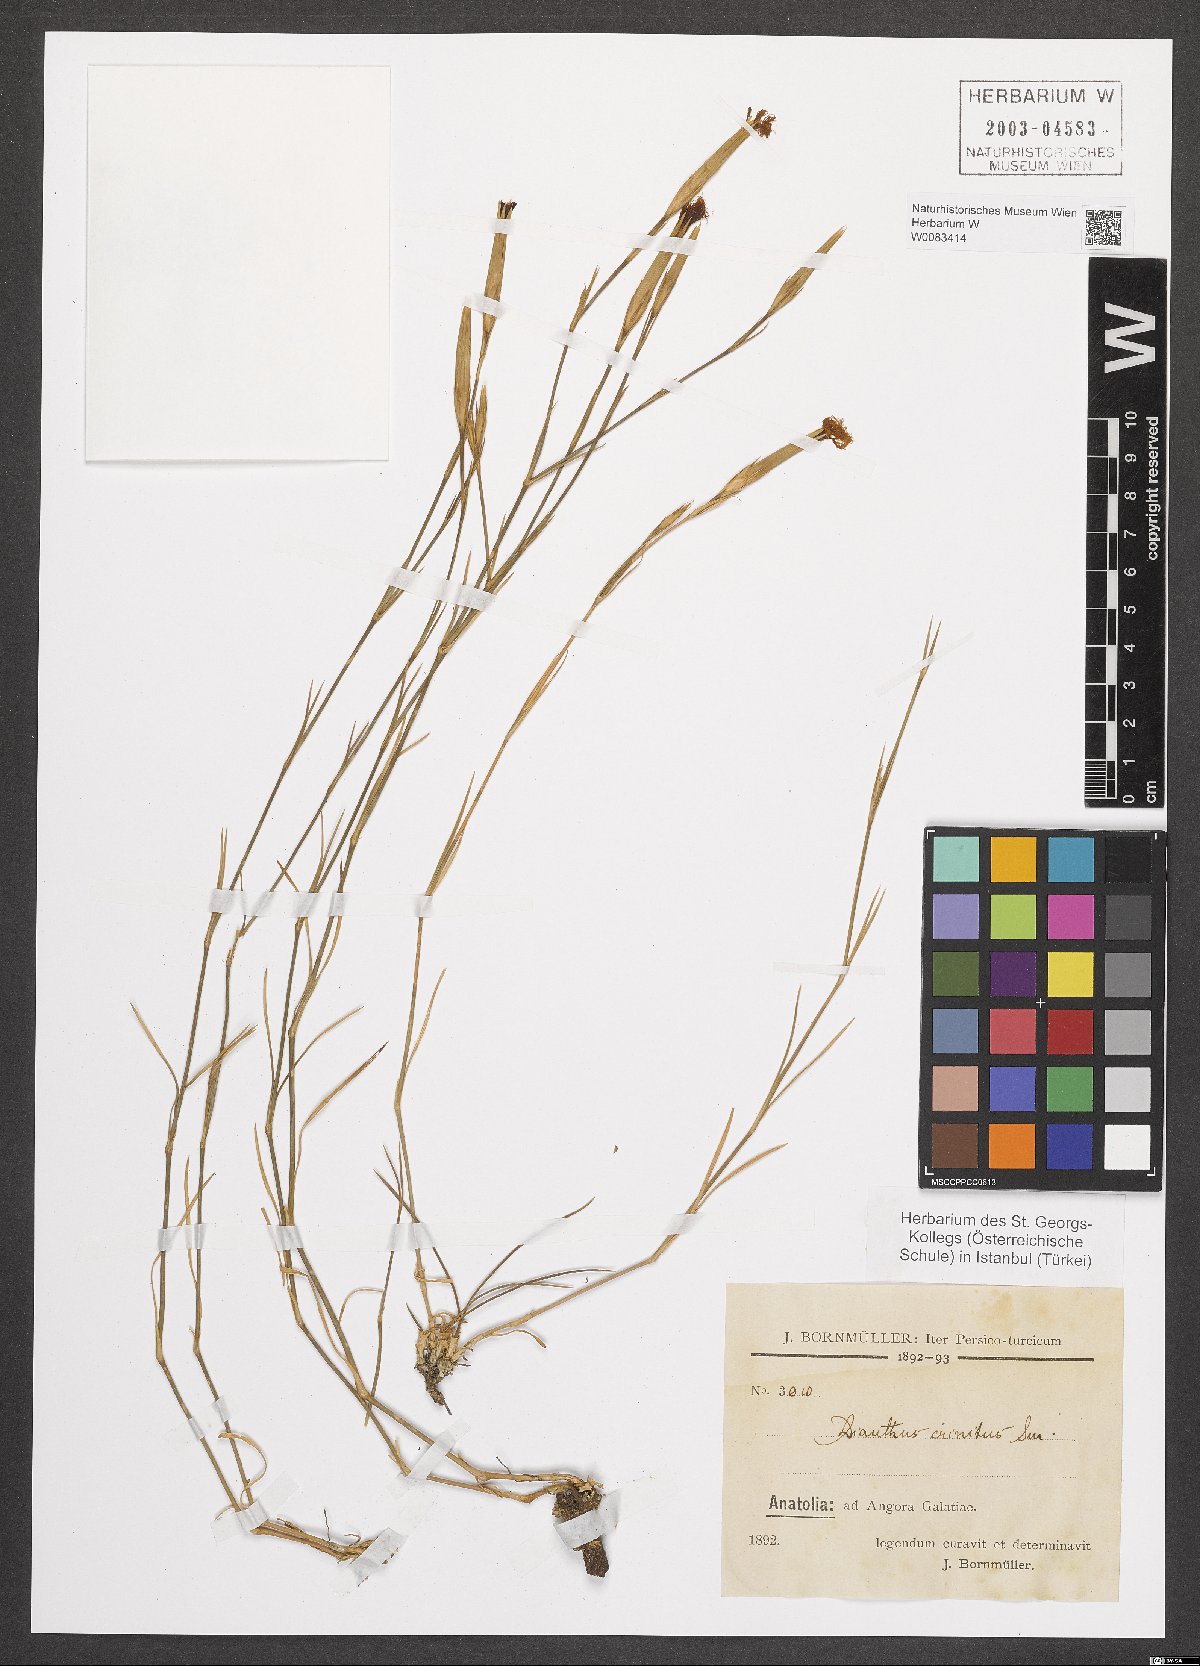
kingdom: Plantae
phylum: Tracheophyta
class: Magnoliopsida
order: Caryophyllales
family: Caryophyllaceae
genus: Dianthus
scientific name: Dianthus crinitus
